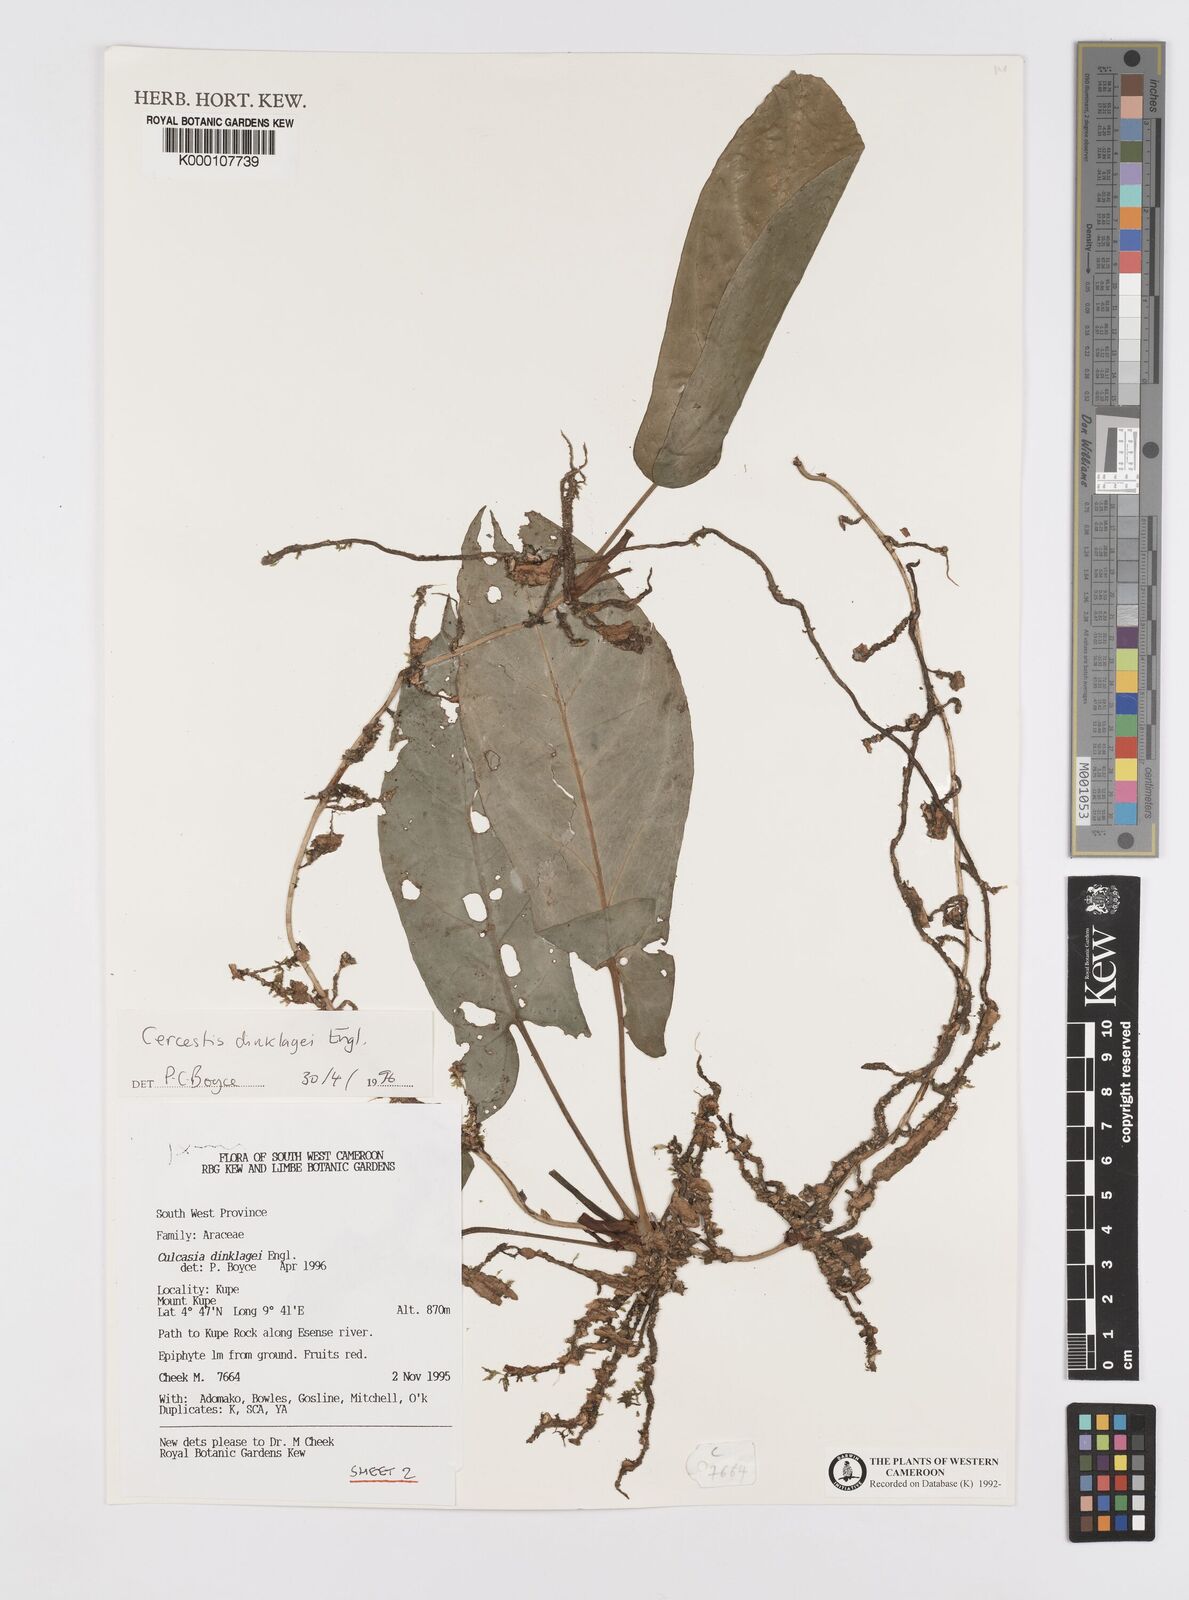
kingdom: Plantae
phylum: Tracheophyta
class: Liliopsida
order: Alismatales
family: Araceae
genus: Cercestis
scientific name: Cercestis dinklagei
